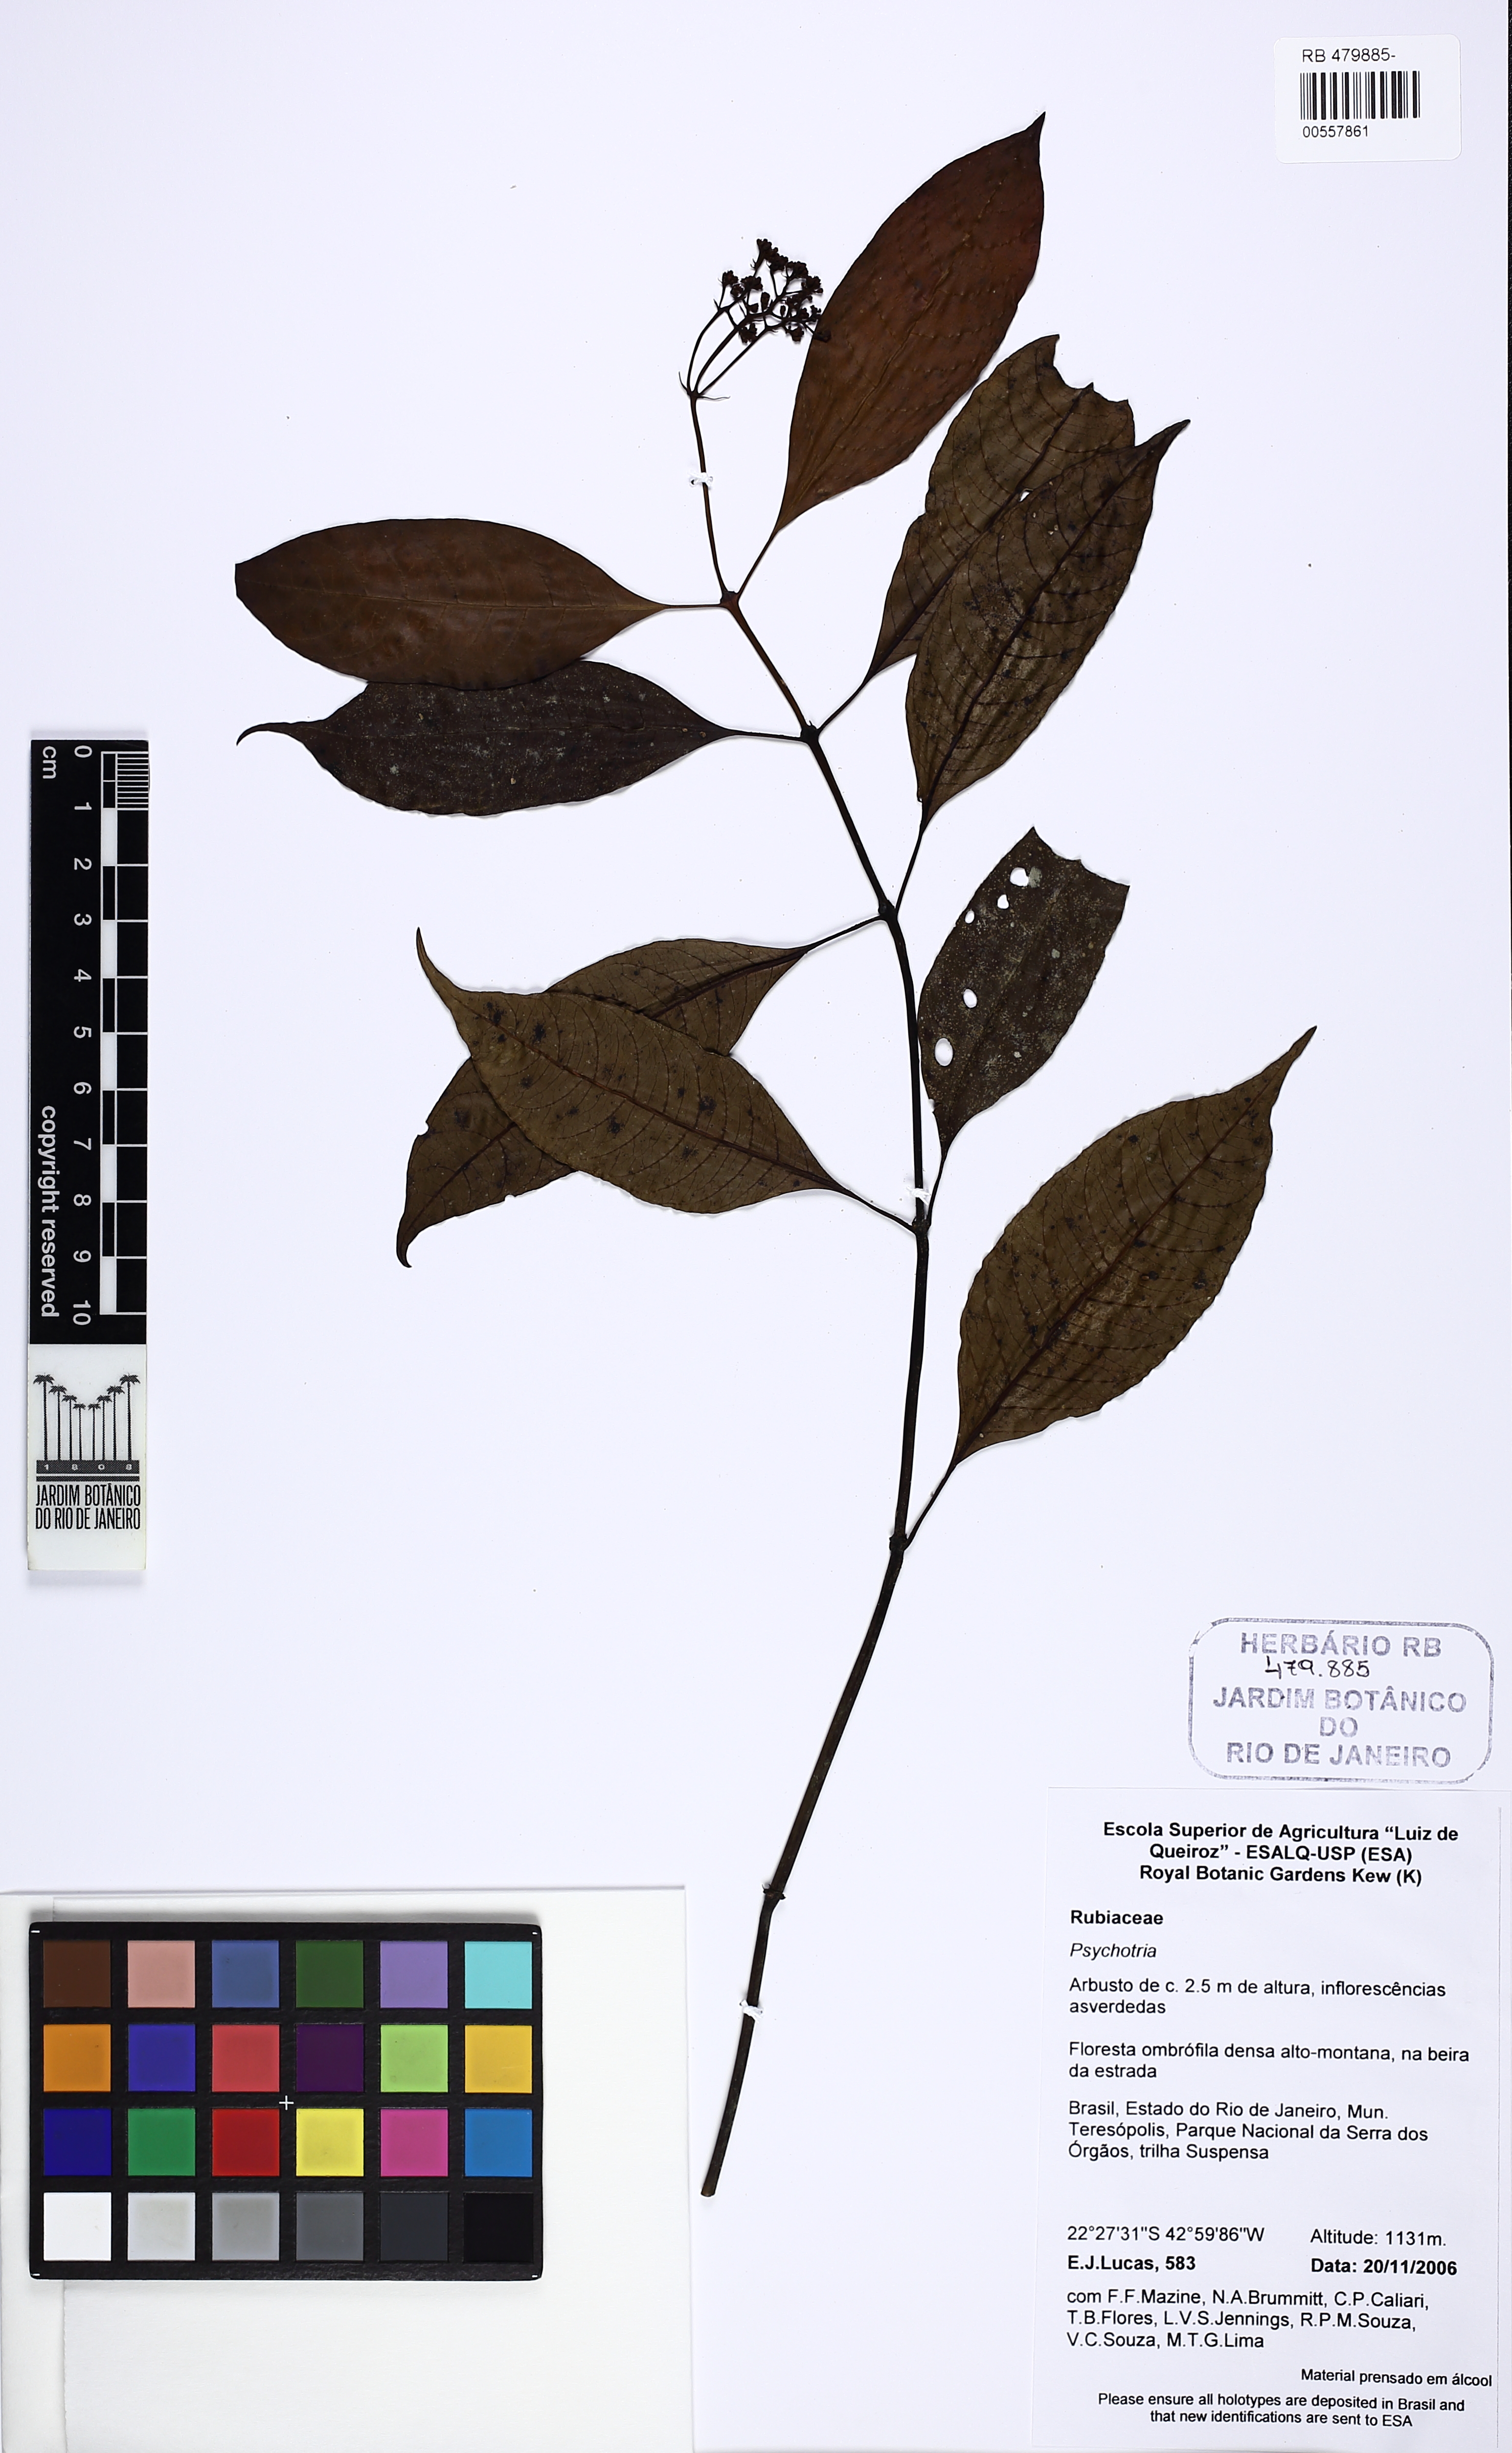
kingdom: Plantae
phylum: Tracheophyta
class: Magnoliopsida
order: Gentianales
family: Rubiaceae
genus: Psychotria
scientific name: Psychotria nemorosa
